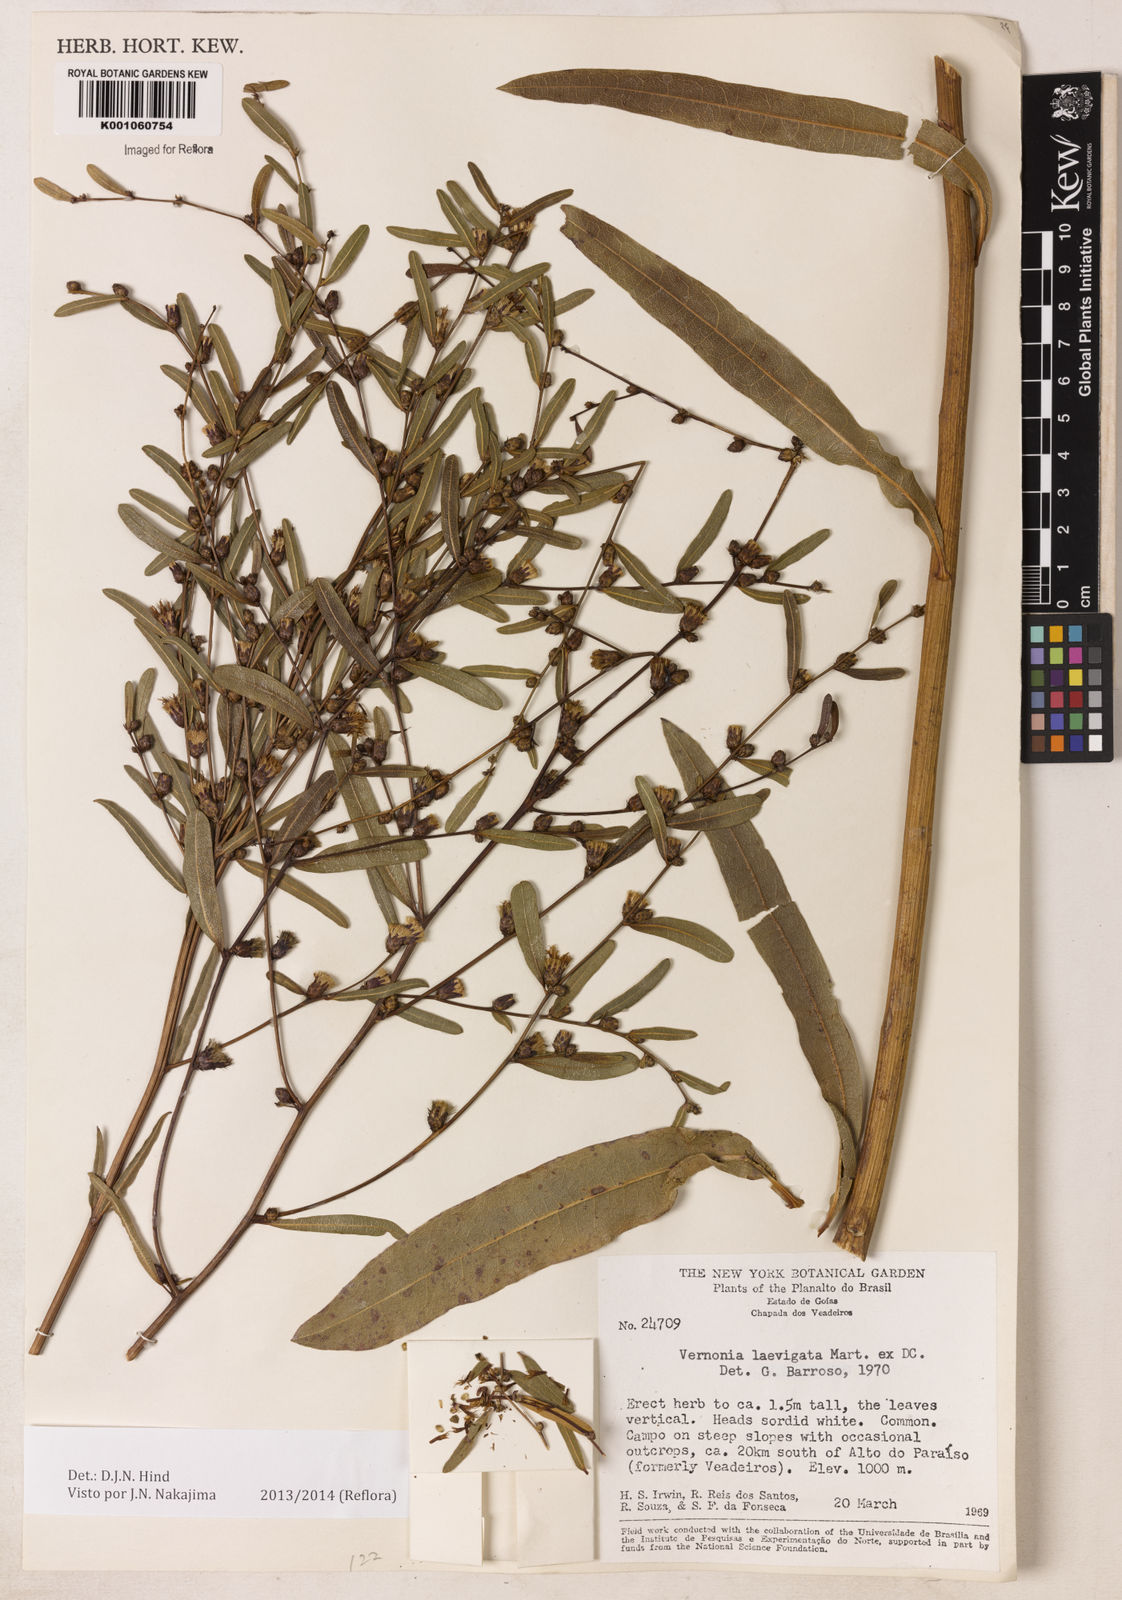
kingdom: Plantae
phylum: Tracheophyta
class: Magnoliopsida
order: Asterales
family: Asteraceae
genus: Lessingianthus
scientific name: Lessingianthus obtusatus
